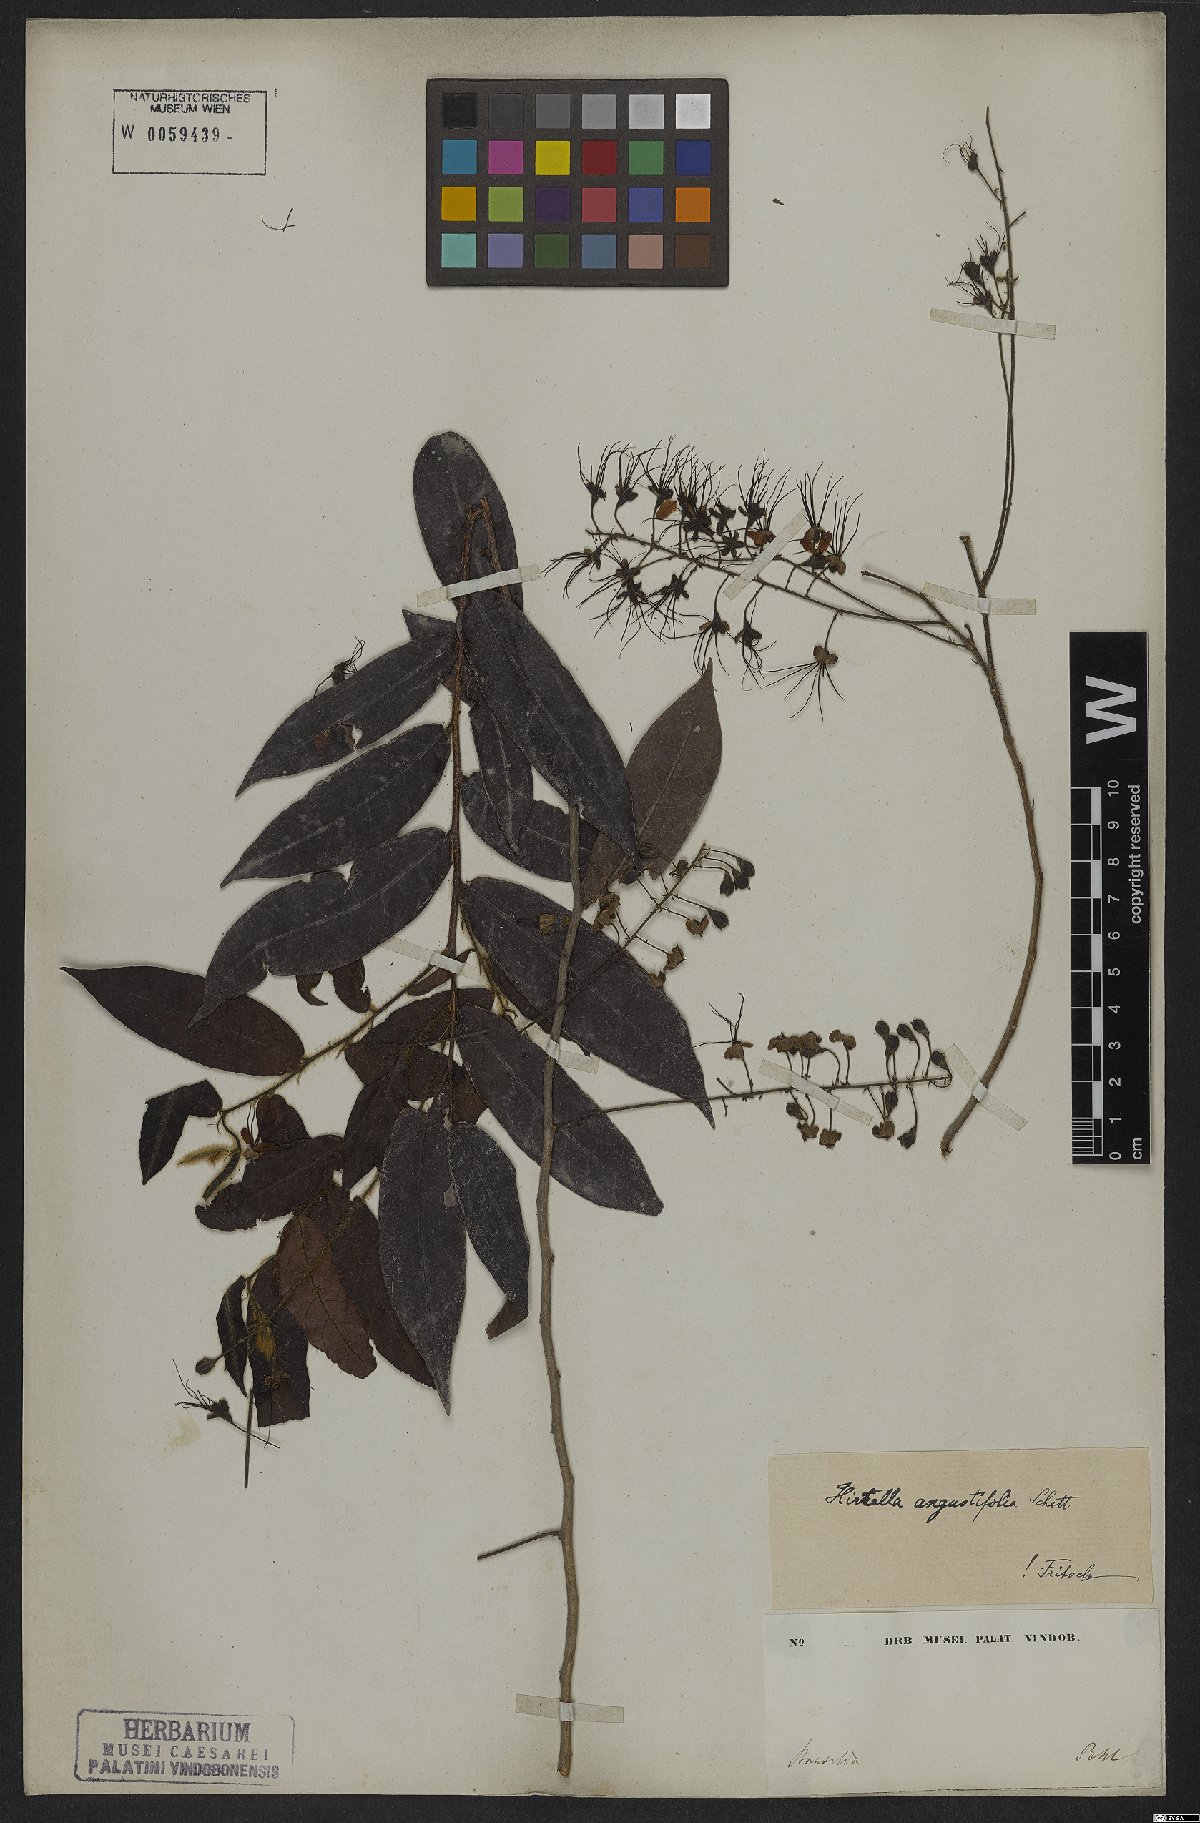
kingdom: Plantae
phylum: Tracheophyta
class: Magnoliopsida
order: Malpighiales
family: Chrysobalanaceae
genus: Hirtella
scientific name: Hirtella angustifolia
